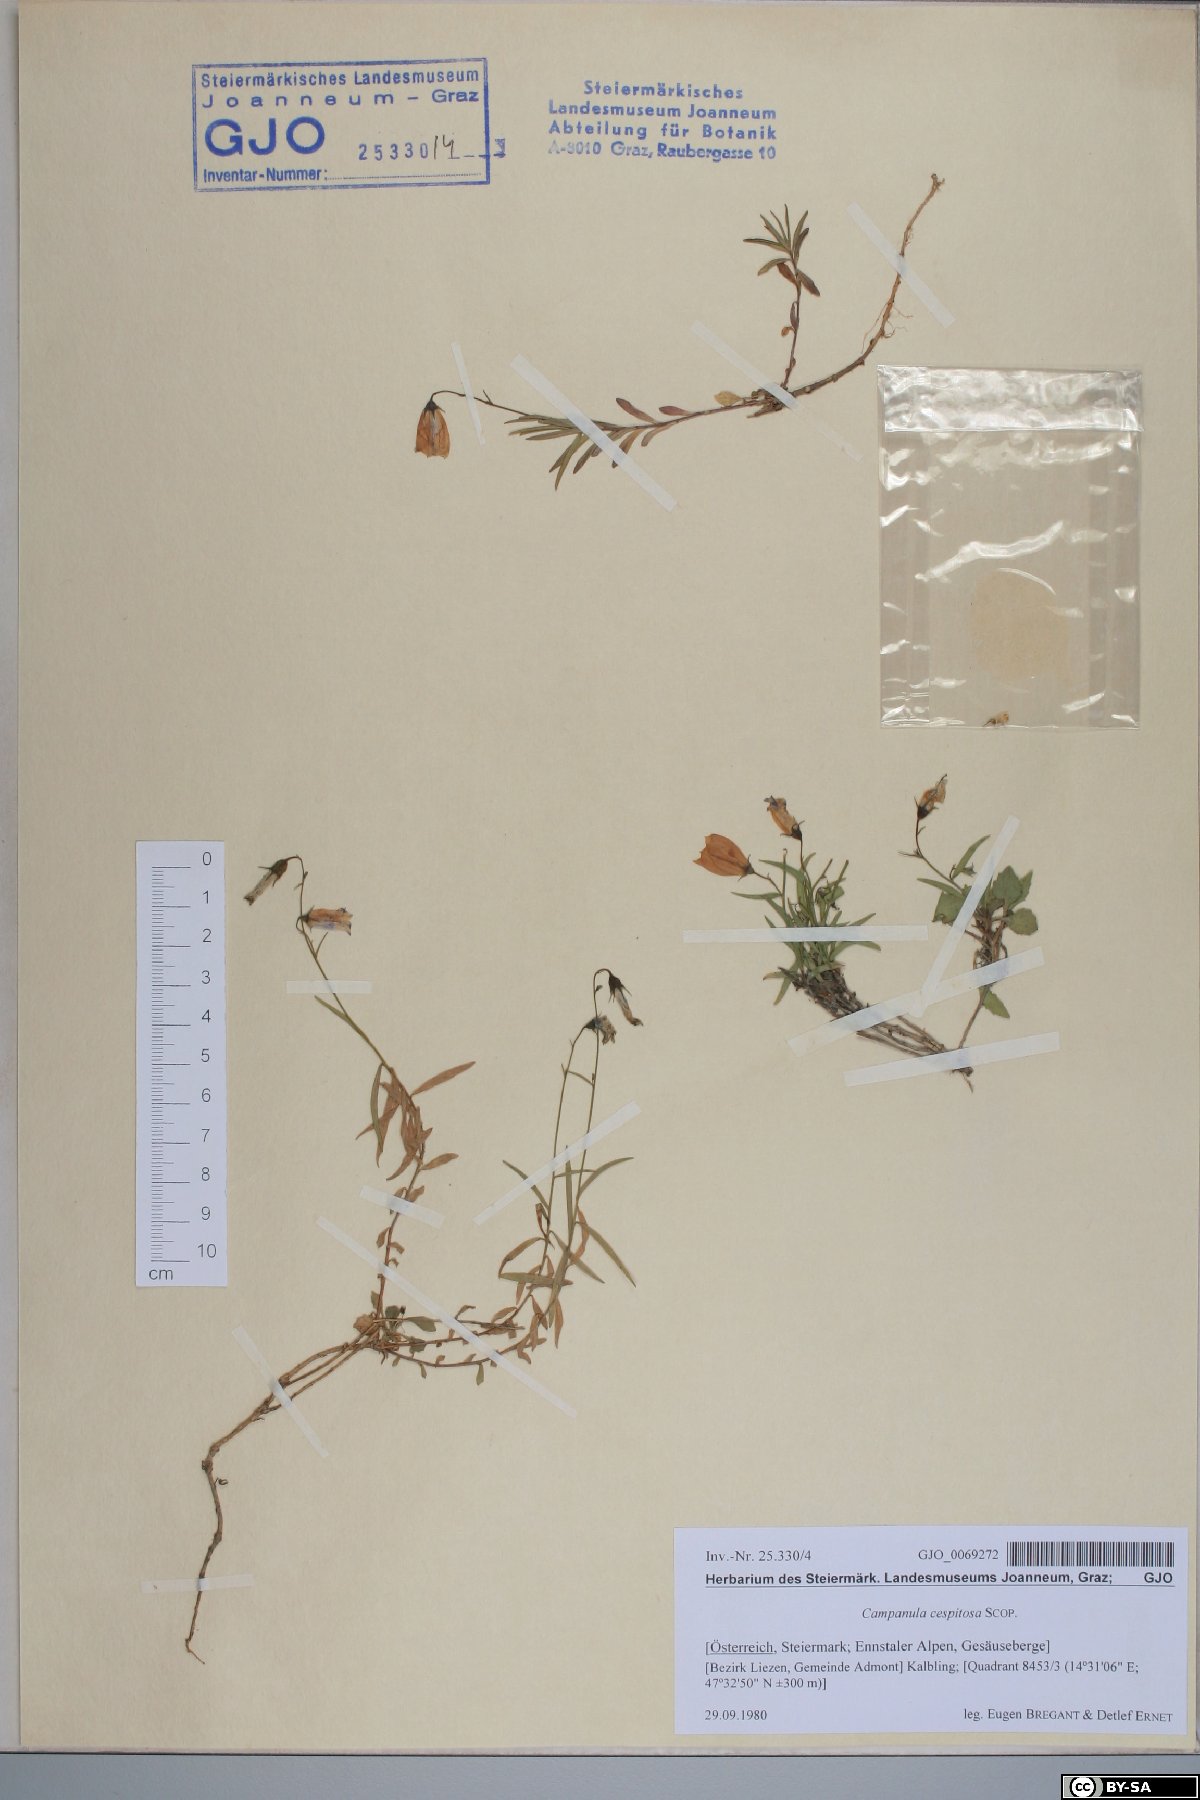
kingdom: Plantae
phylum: Tracheophyta
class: Magnoliopsida
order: Asterales
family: Campanulaceae
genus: Campanula
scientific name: Campanula cespitosa
